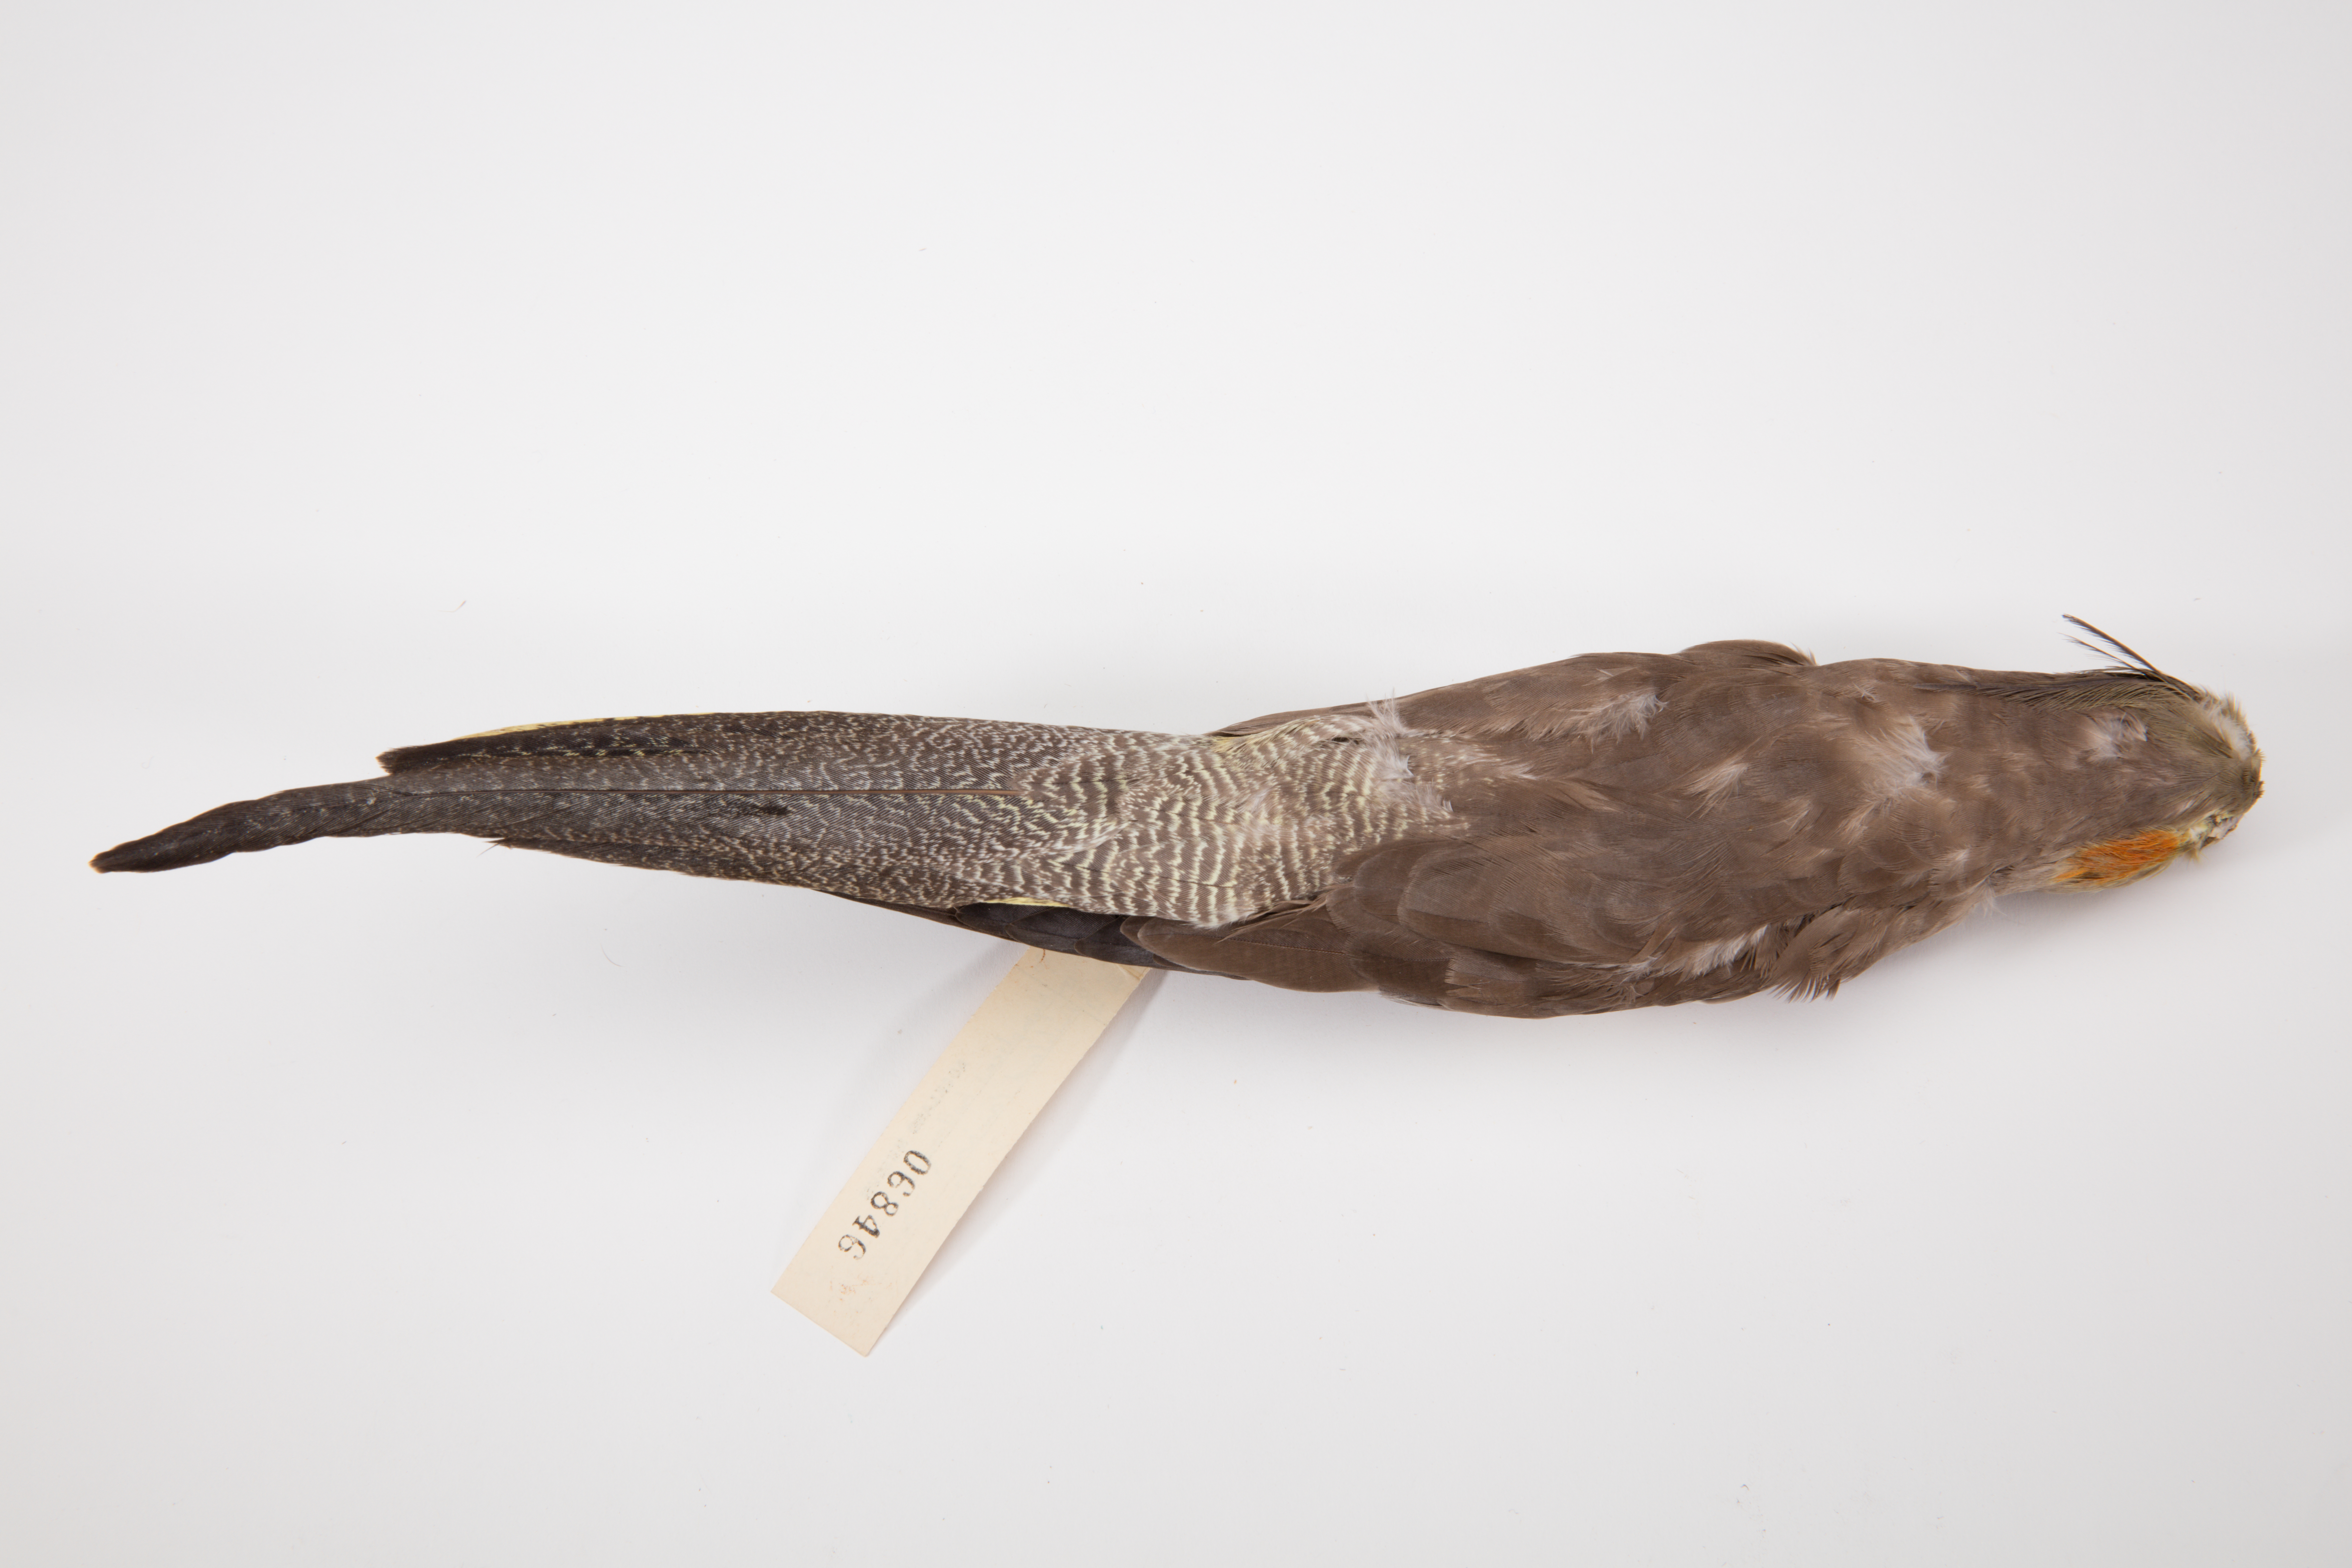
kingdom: Animalia
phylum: Chordata
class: Aves
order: Psittaciformes
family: Psittacidae
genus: Nymphicus
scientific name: Nymphicus hollandicus
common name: Cockatiel
